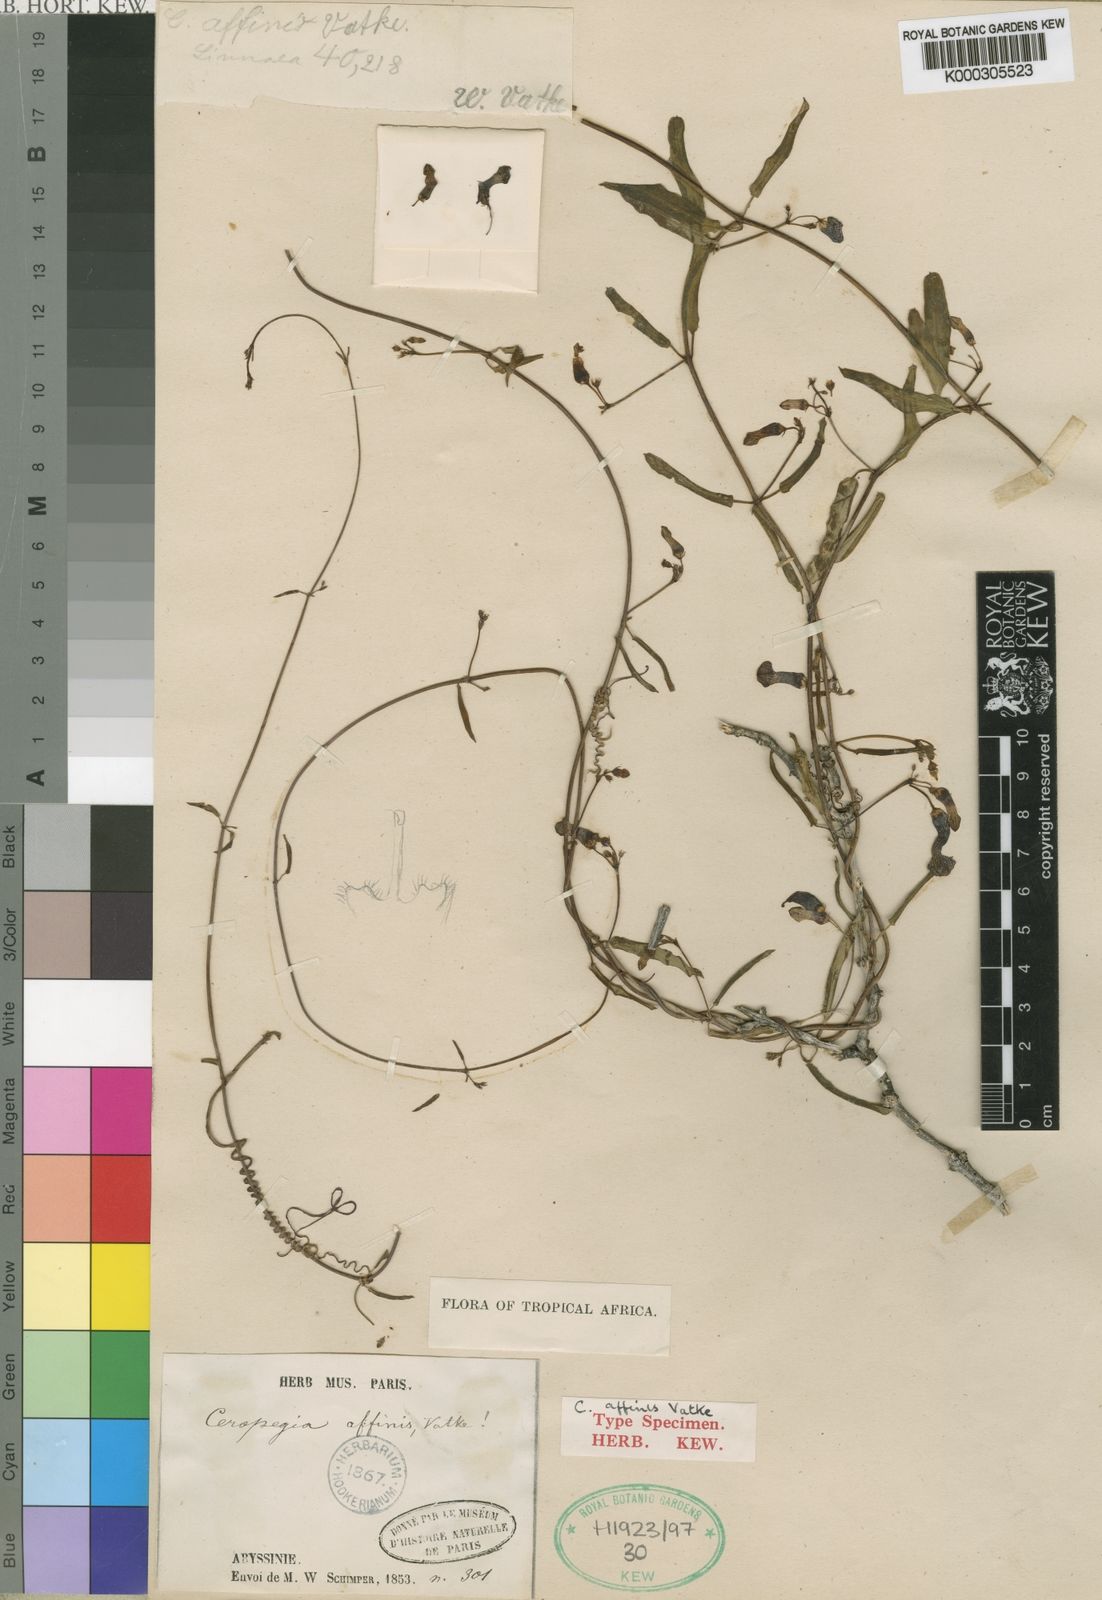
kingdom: Plantae
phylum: Tracheophyta
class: Magnoliopsida
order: Gentianales
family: Apocynaceae
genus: Ceropegia
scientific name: Ceropegia affinis
